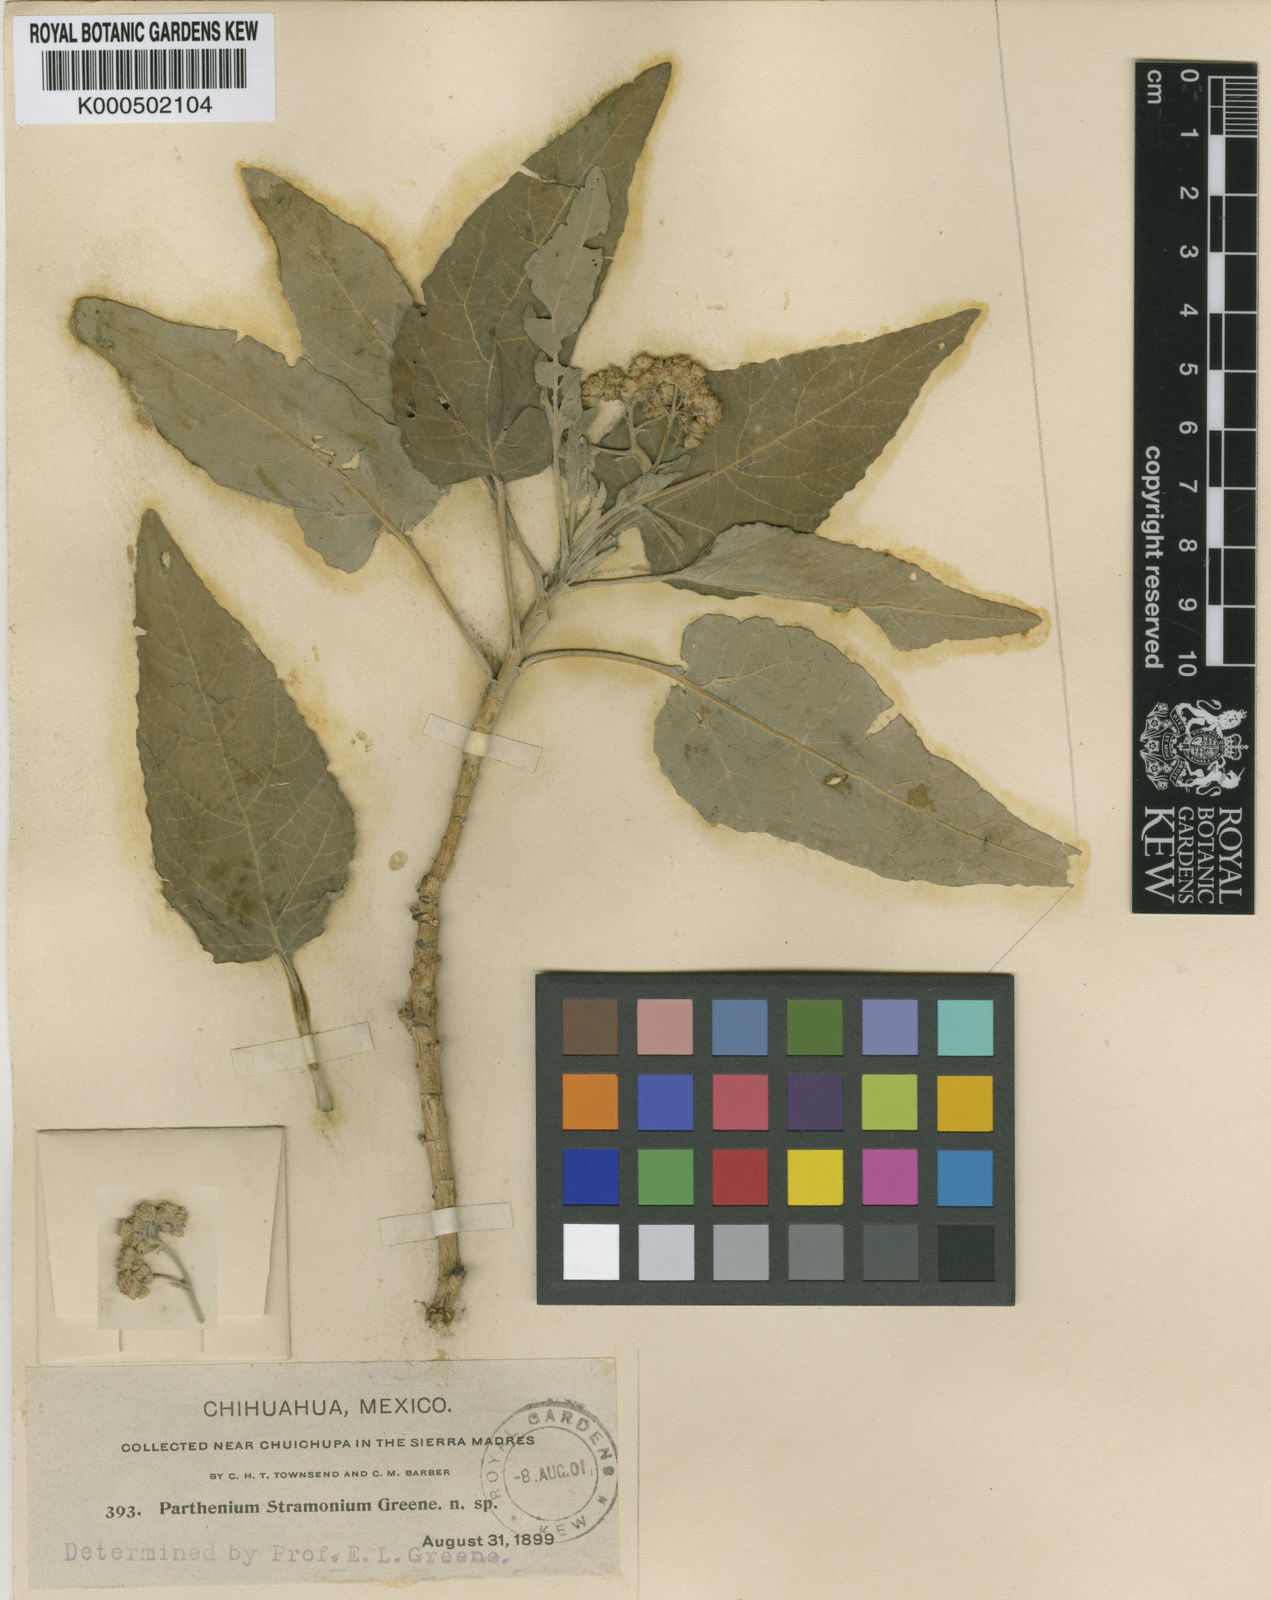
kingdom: Plantae
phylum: Tracheophyta
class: Magnoliopsida
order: Asterales
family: Asteraceae
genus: Parthenium
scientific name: Parthenium tomentosum
